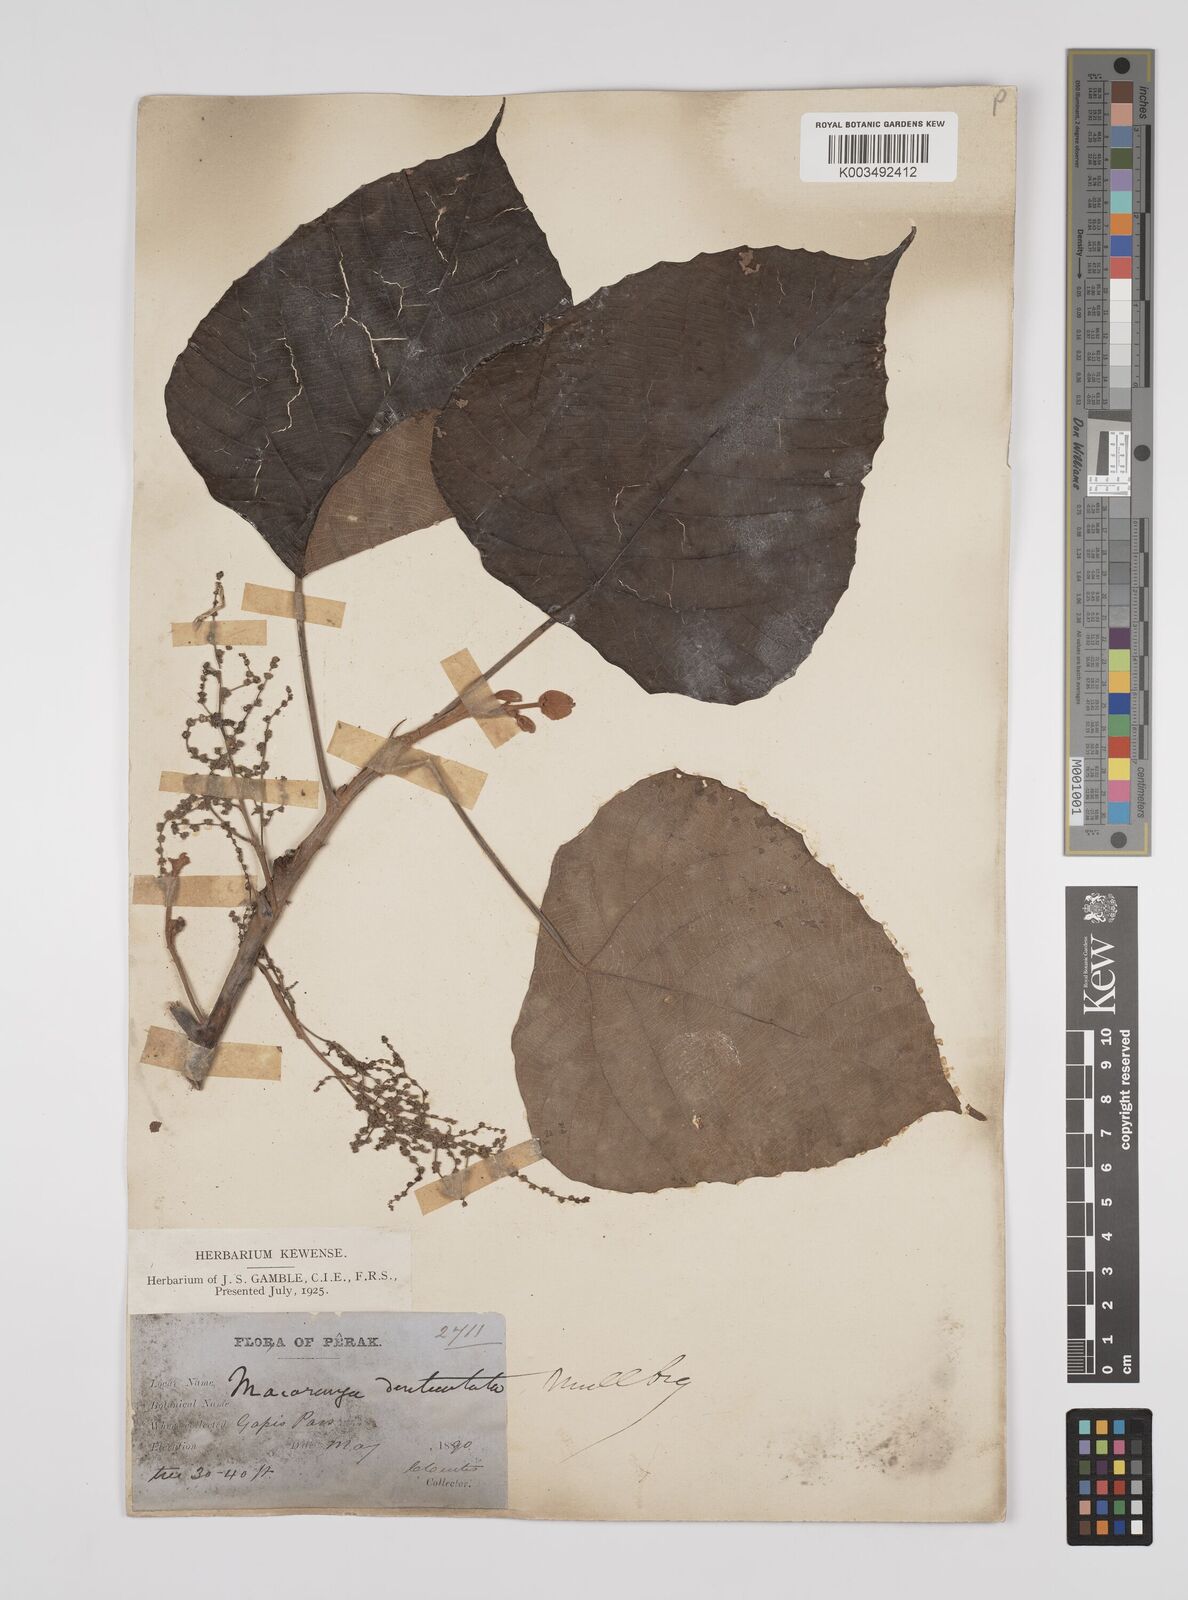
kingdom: Plantae
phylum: Tracheophyta
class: Magnoliopsida
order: Malpighiales
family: Euphorbiaceae
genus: Macaranga
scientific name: Macaranga denticulata
